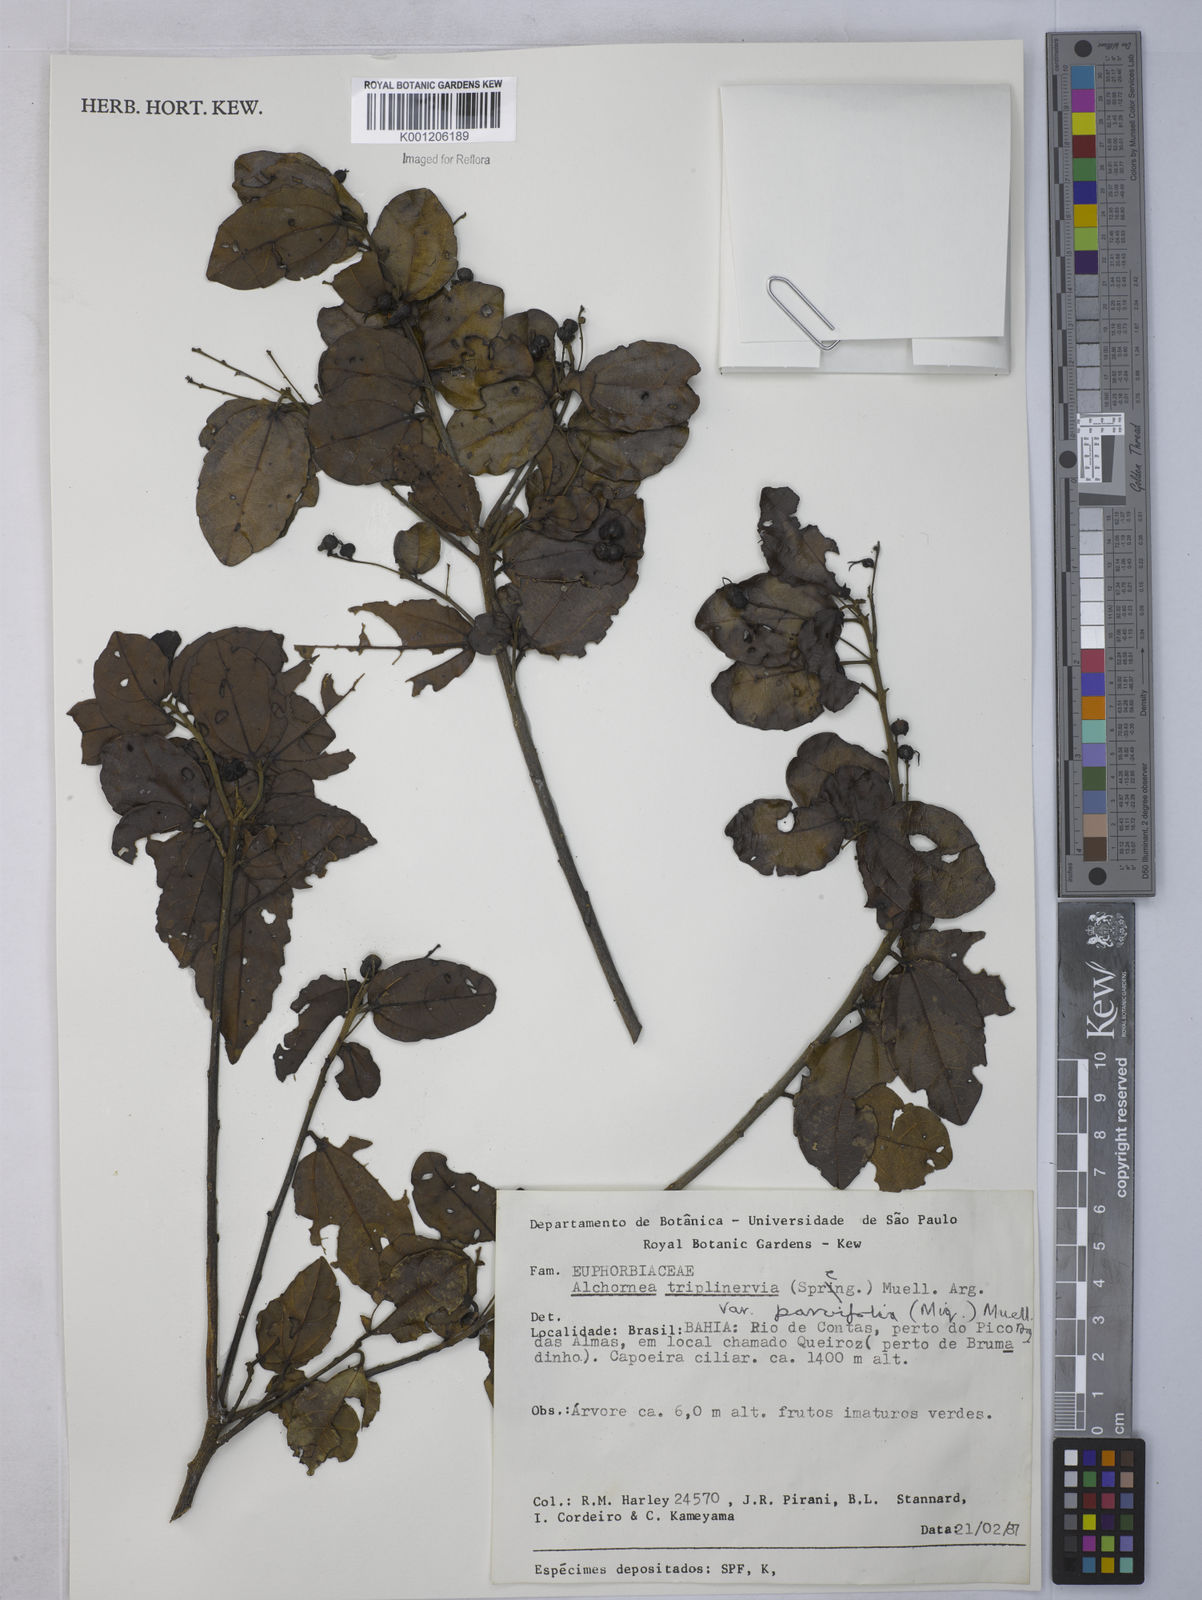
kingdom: Plantae
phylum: Tracheophyta
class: Magnoliopsida
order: Malpighiales
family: Euphorbiaceae
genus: Alchornea
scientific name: Alchornea
